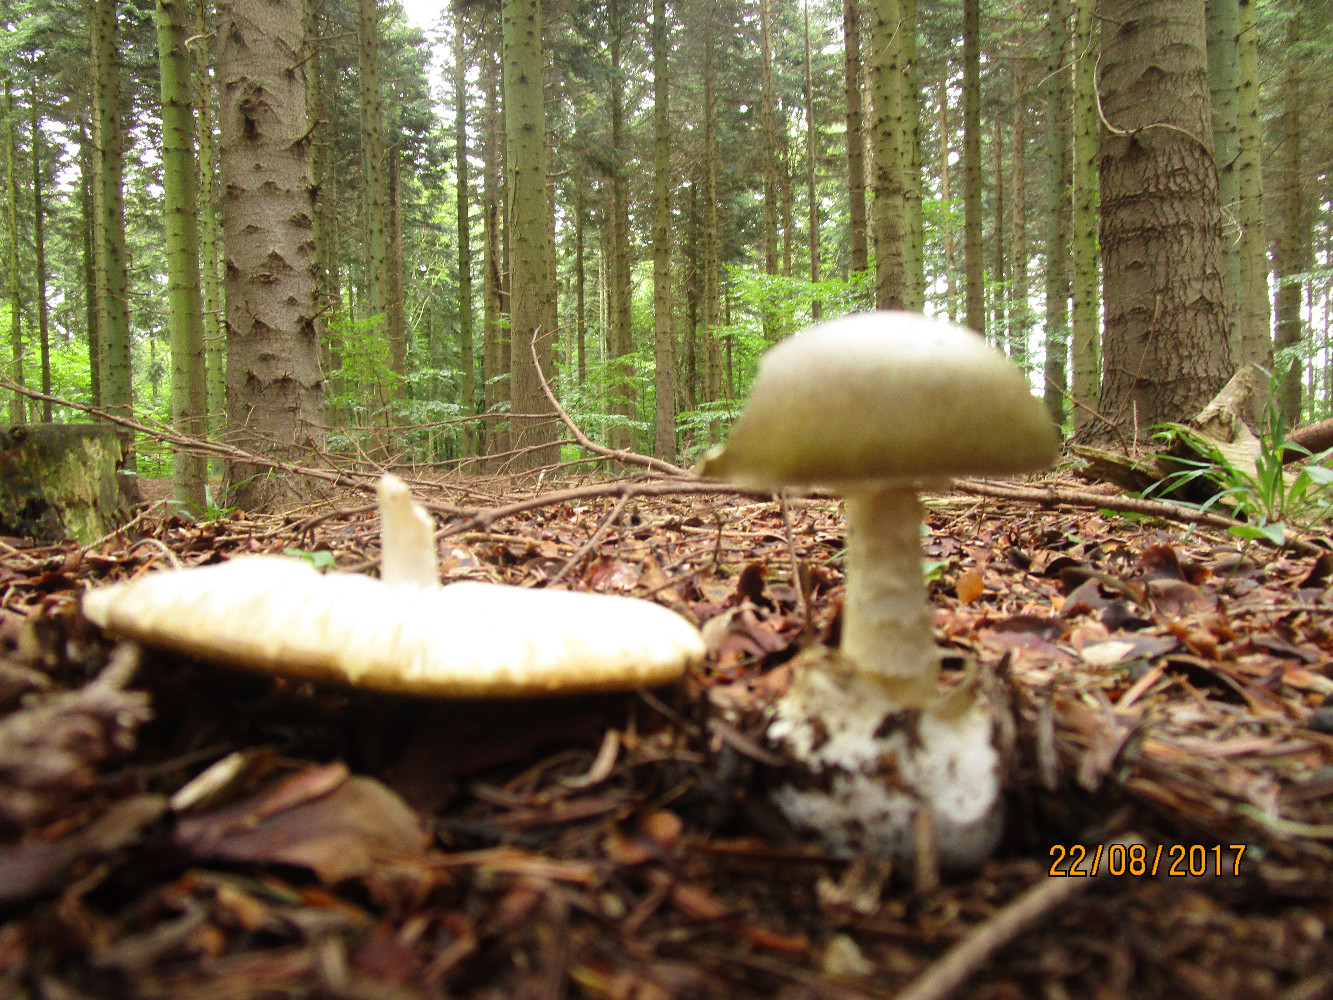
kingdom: Fungi
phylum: Basidiomycota
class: Agaricomycetes
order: Agaricales
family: Amanitaceae
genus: Amanita
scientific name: Amanita phalloides
